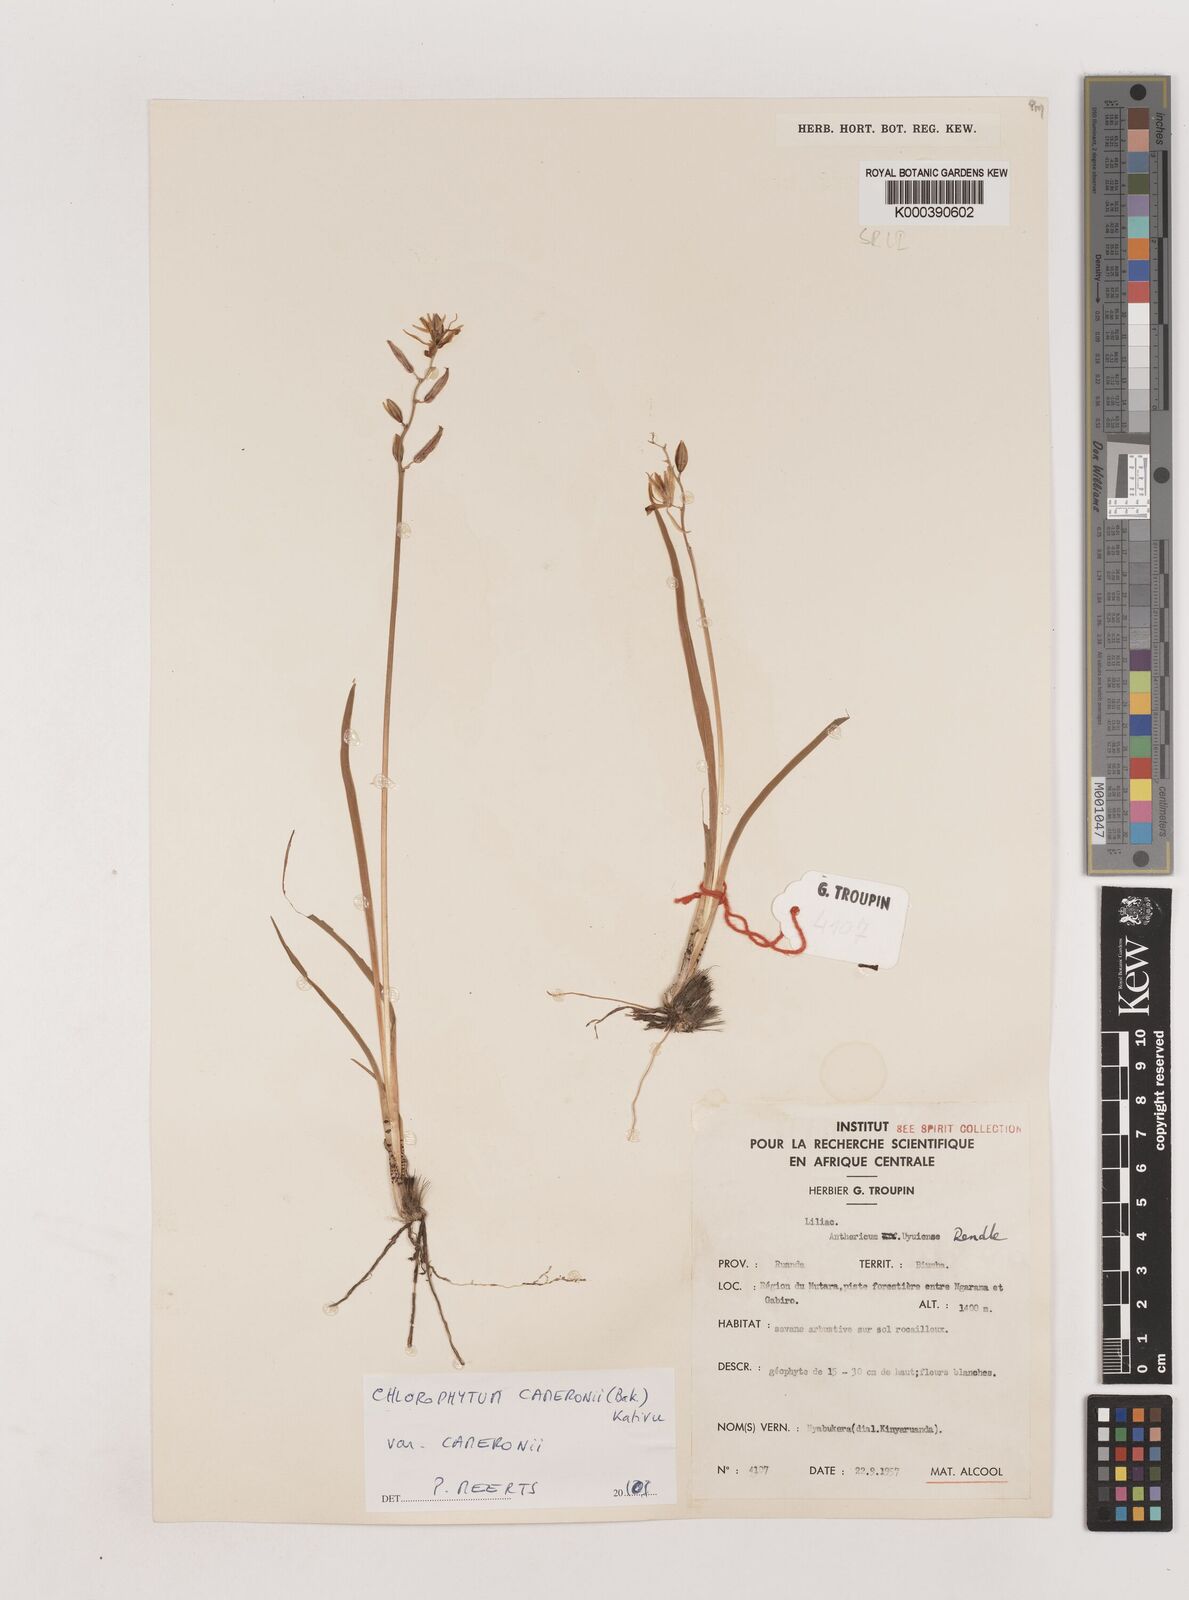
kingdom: Plantae
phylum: Tracheophyta
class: Liliopsida
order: Asparagales
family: Asparagaceae
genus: Chlorophytum
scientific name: Chlorophytum cameronii
